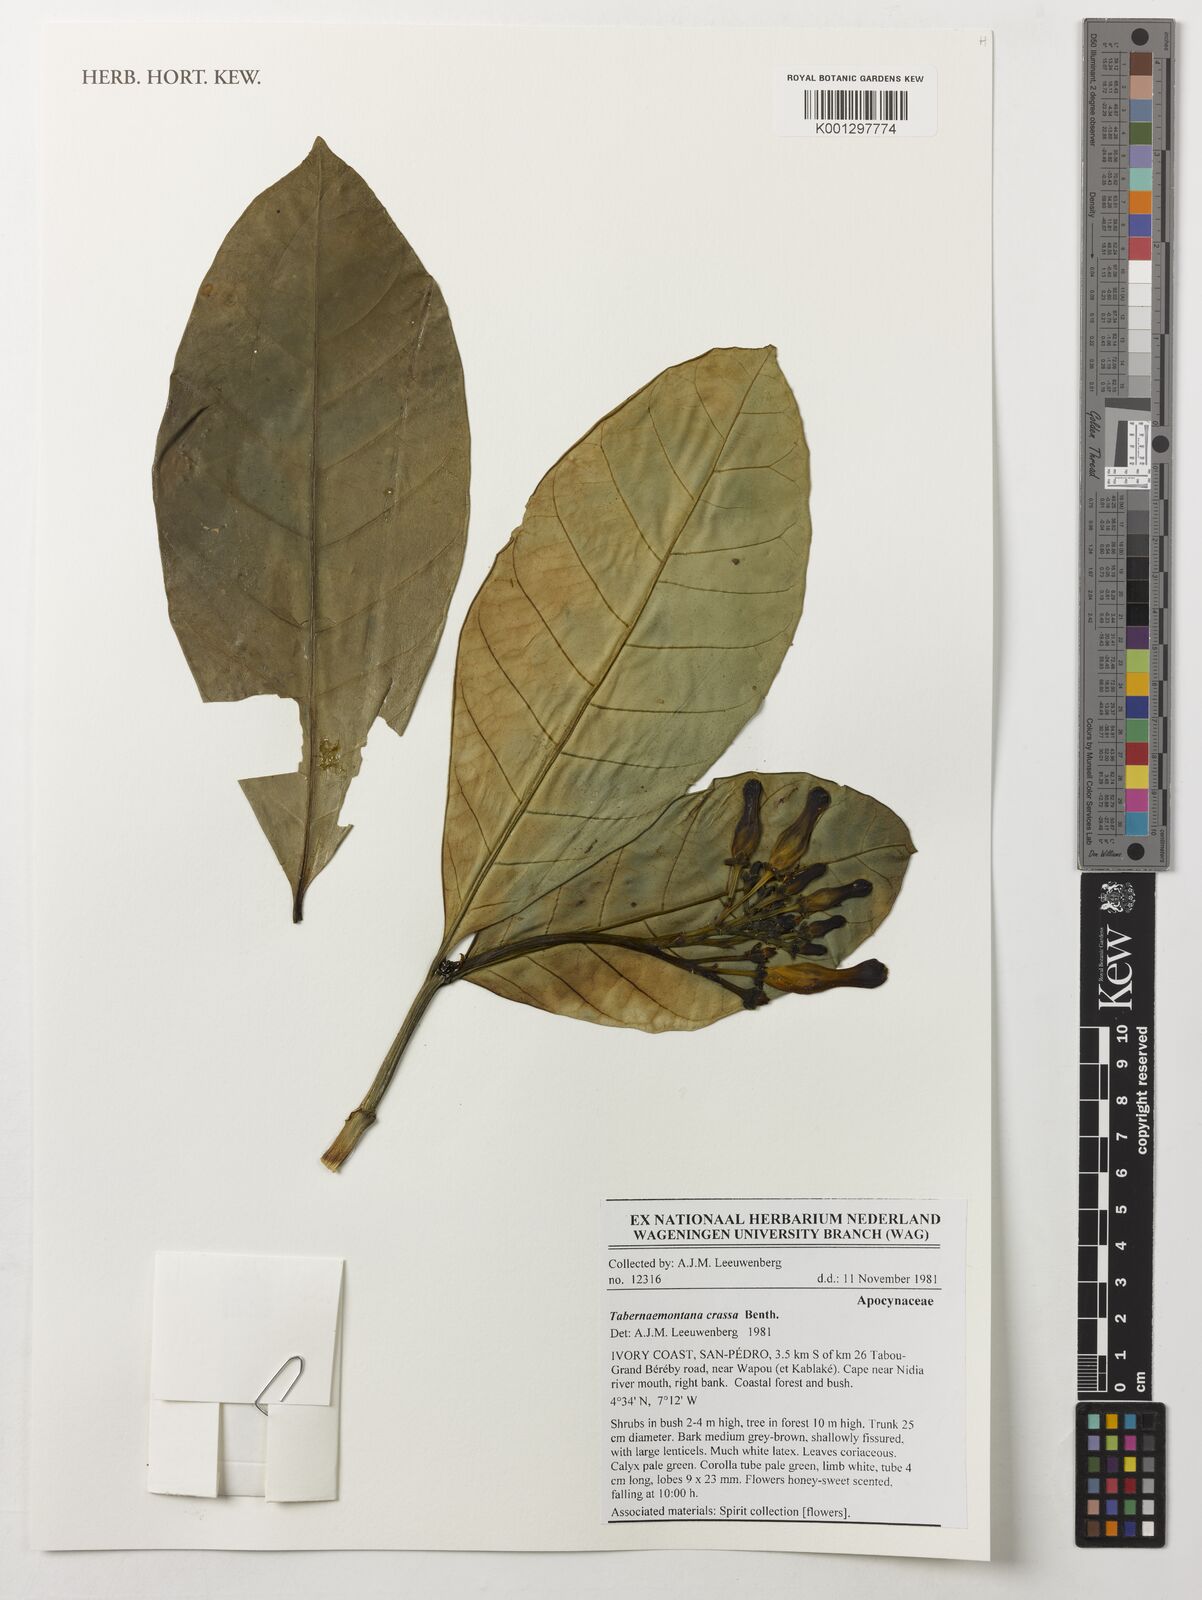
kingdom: Plantae
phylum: Tracheophyta
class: Magnoliopsida
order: Gentianales
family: Apocynaceae
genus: Tabernaemontana
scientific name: Tabernaemontana crassa
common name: Adam's-apple-flower
